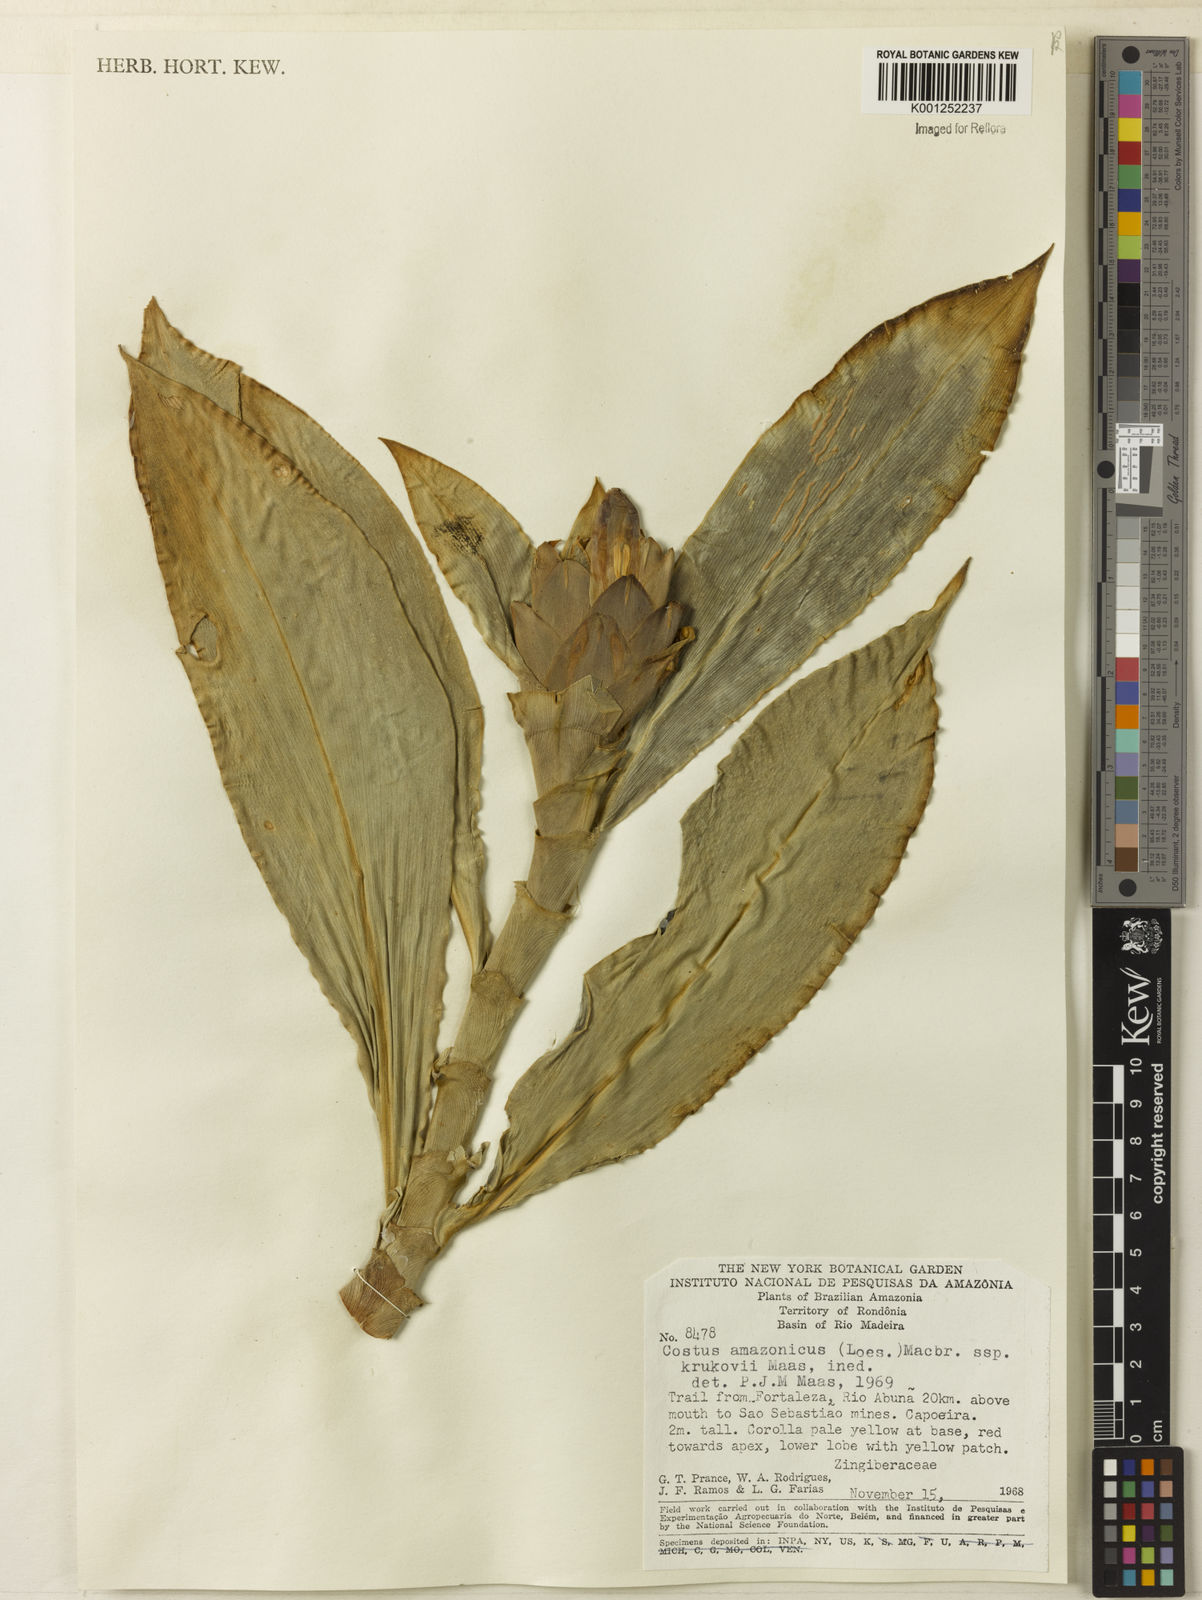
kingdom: Plantae
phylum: Tracheophyta
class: Liliopsida
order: Zingiberales
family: Costaceae
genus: Costus
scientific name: Costus amazonicus
